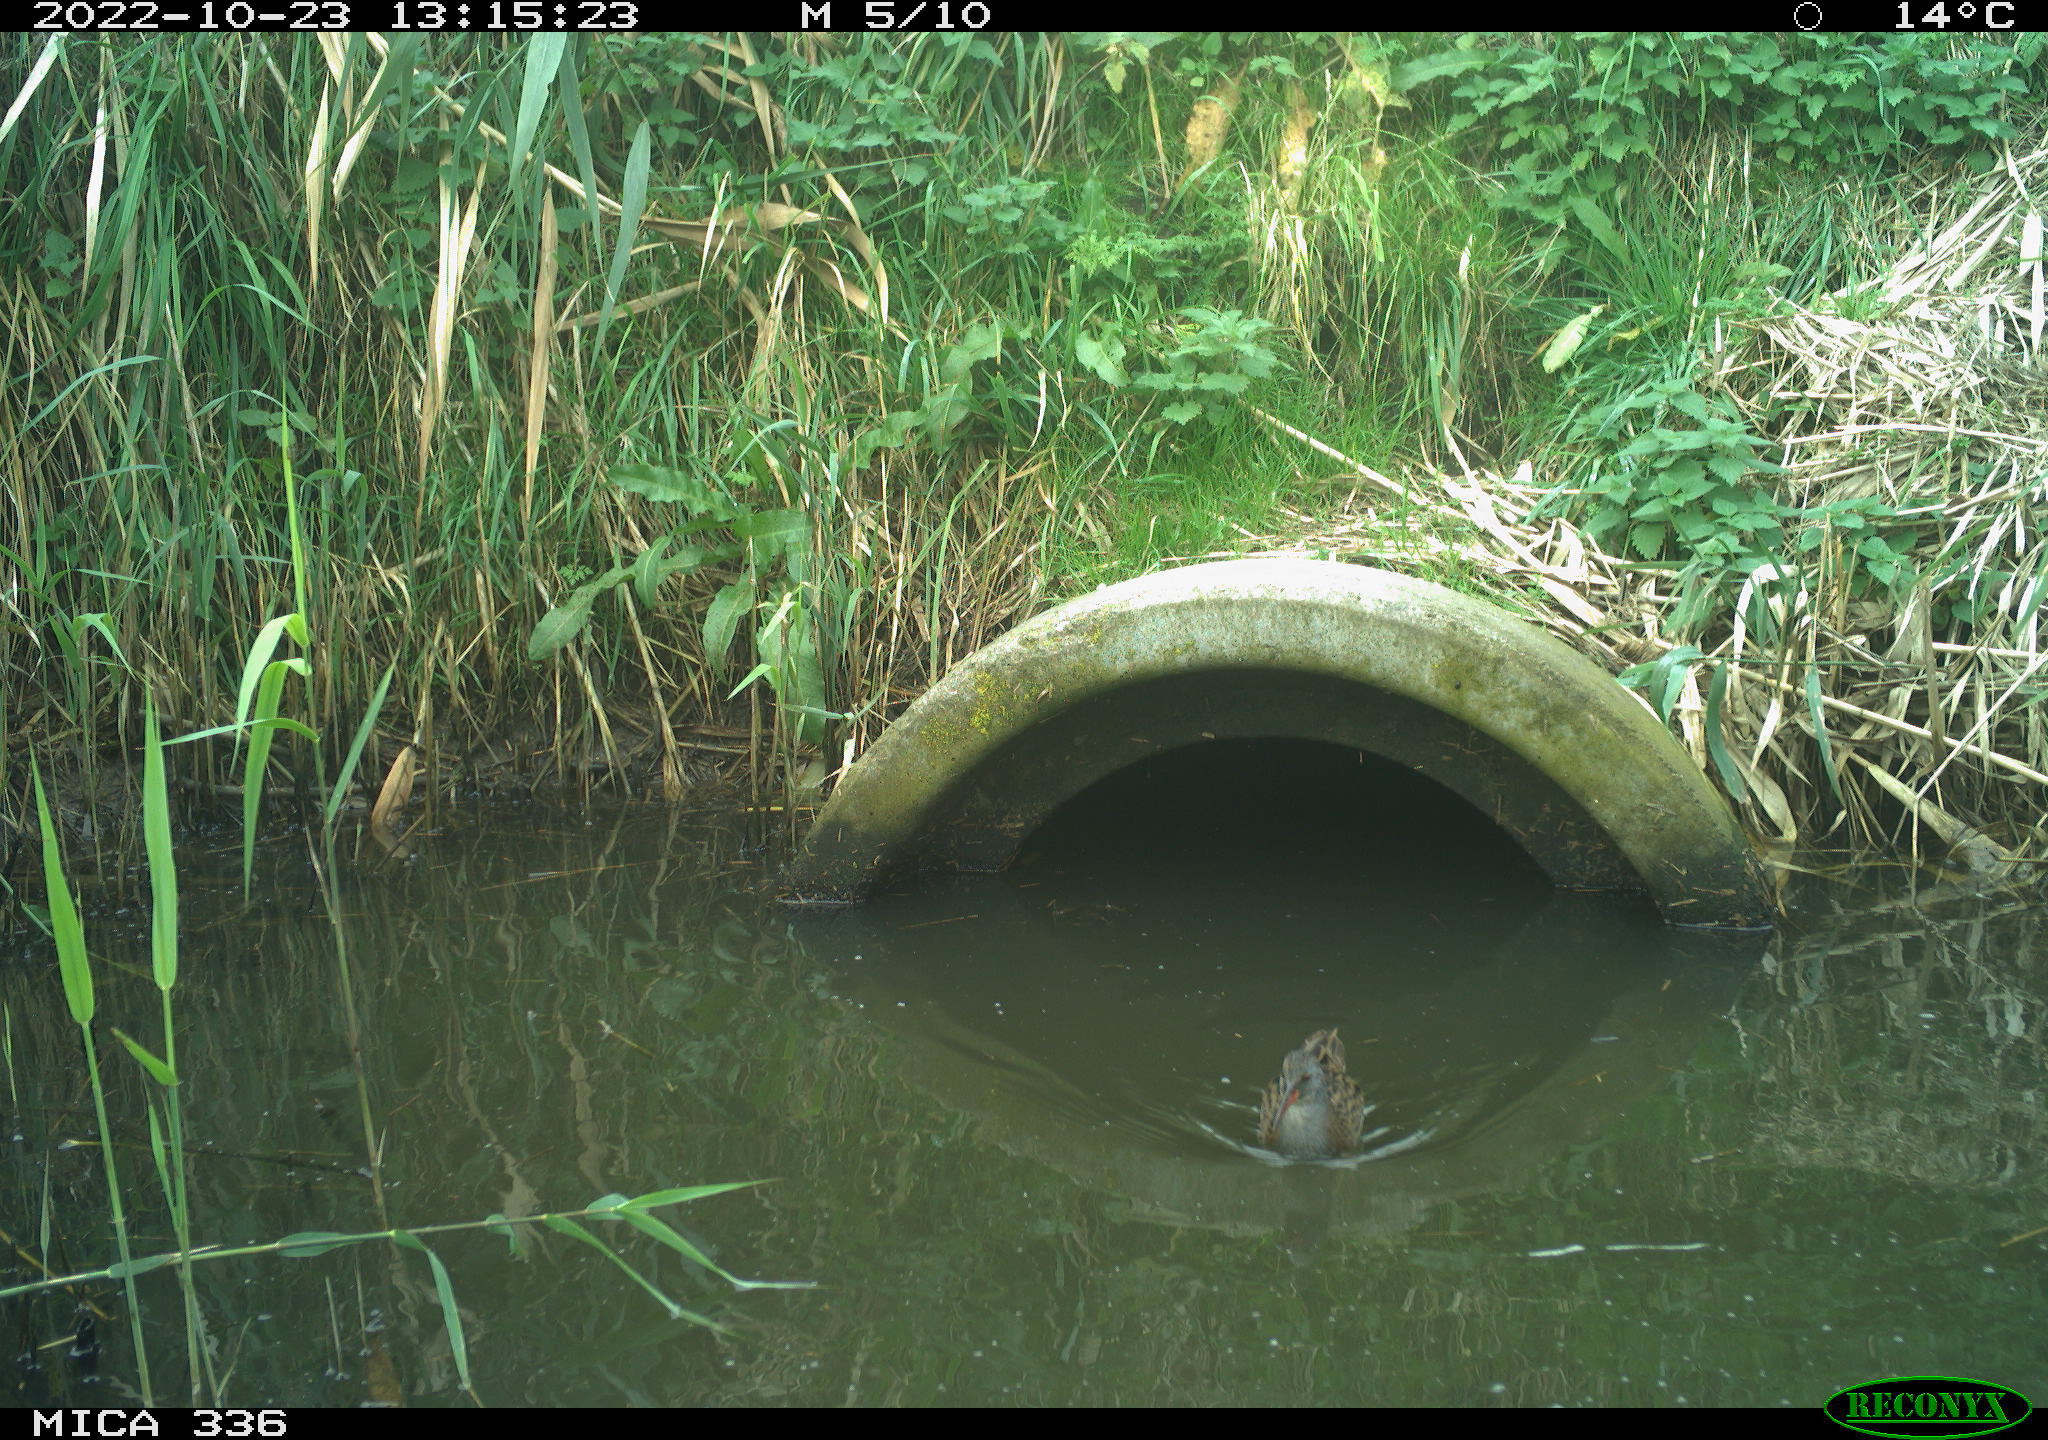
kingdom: Animalia
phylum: Chordata
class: Aves
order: Gruiformes
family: Rallidae
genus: Rallus
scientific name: Rallus aquaticus
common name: Water rail
